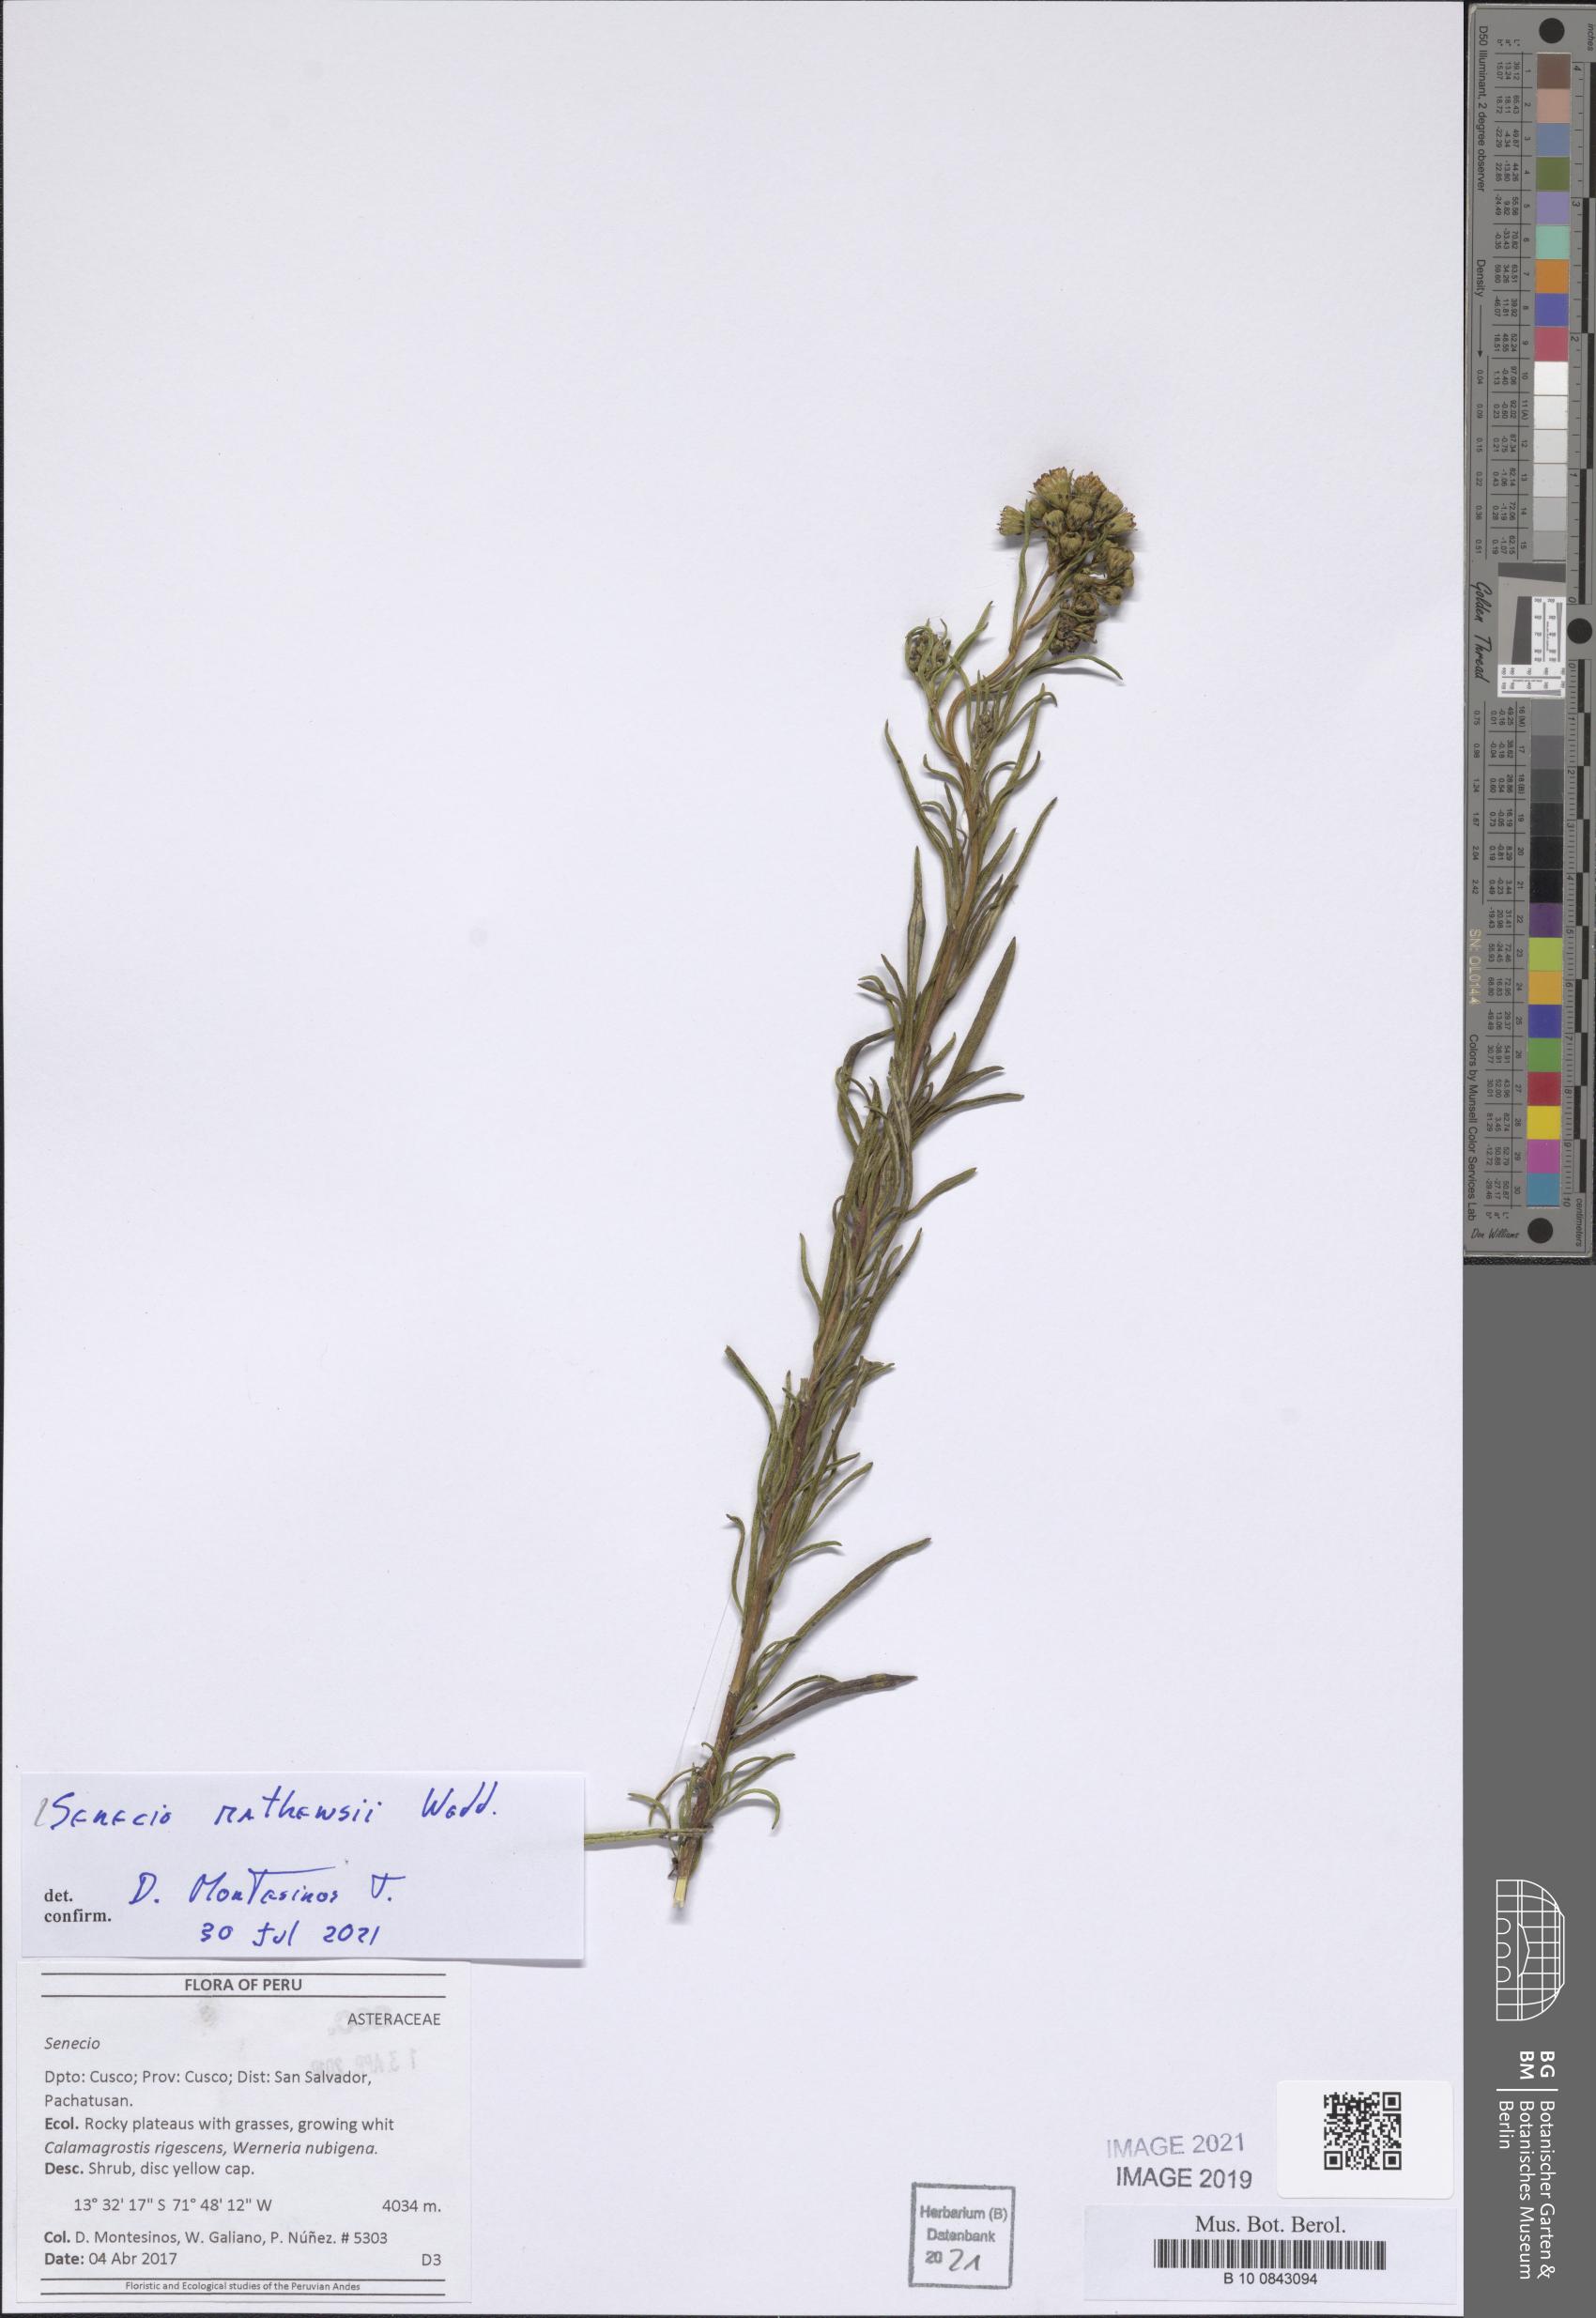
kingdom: Plantae
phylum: Tracheophyta
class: Magnoliopsida
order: Asterales
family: Asteraceae
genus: Senecio
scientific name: Senecio mathewsii
